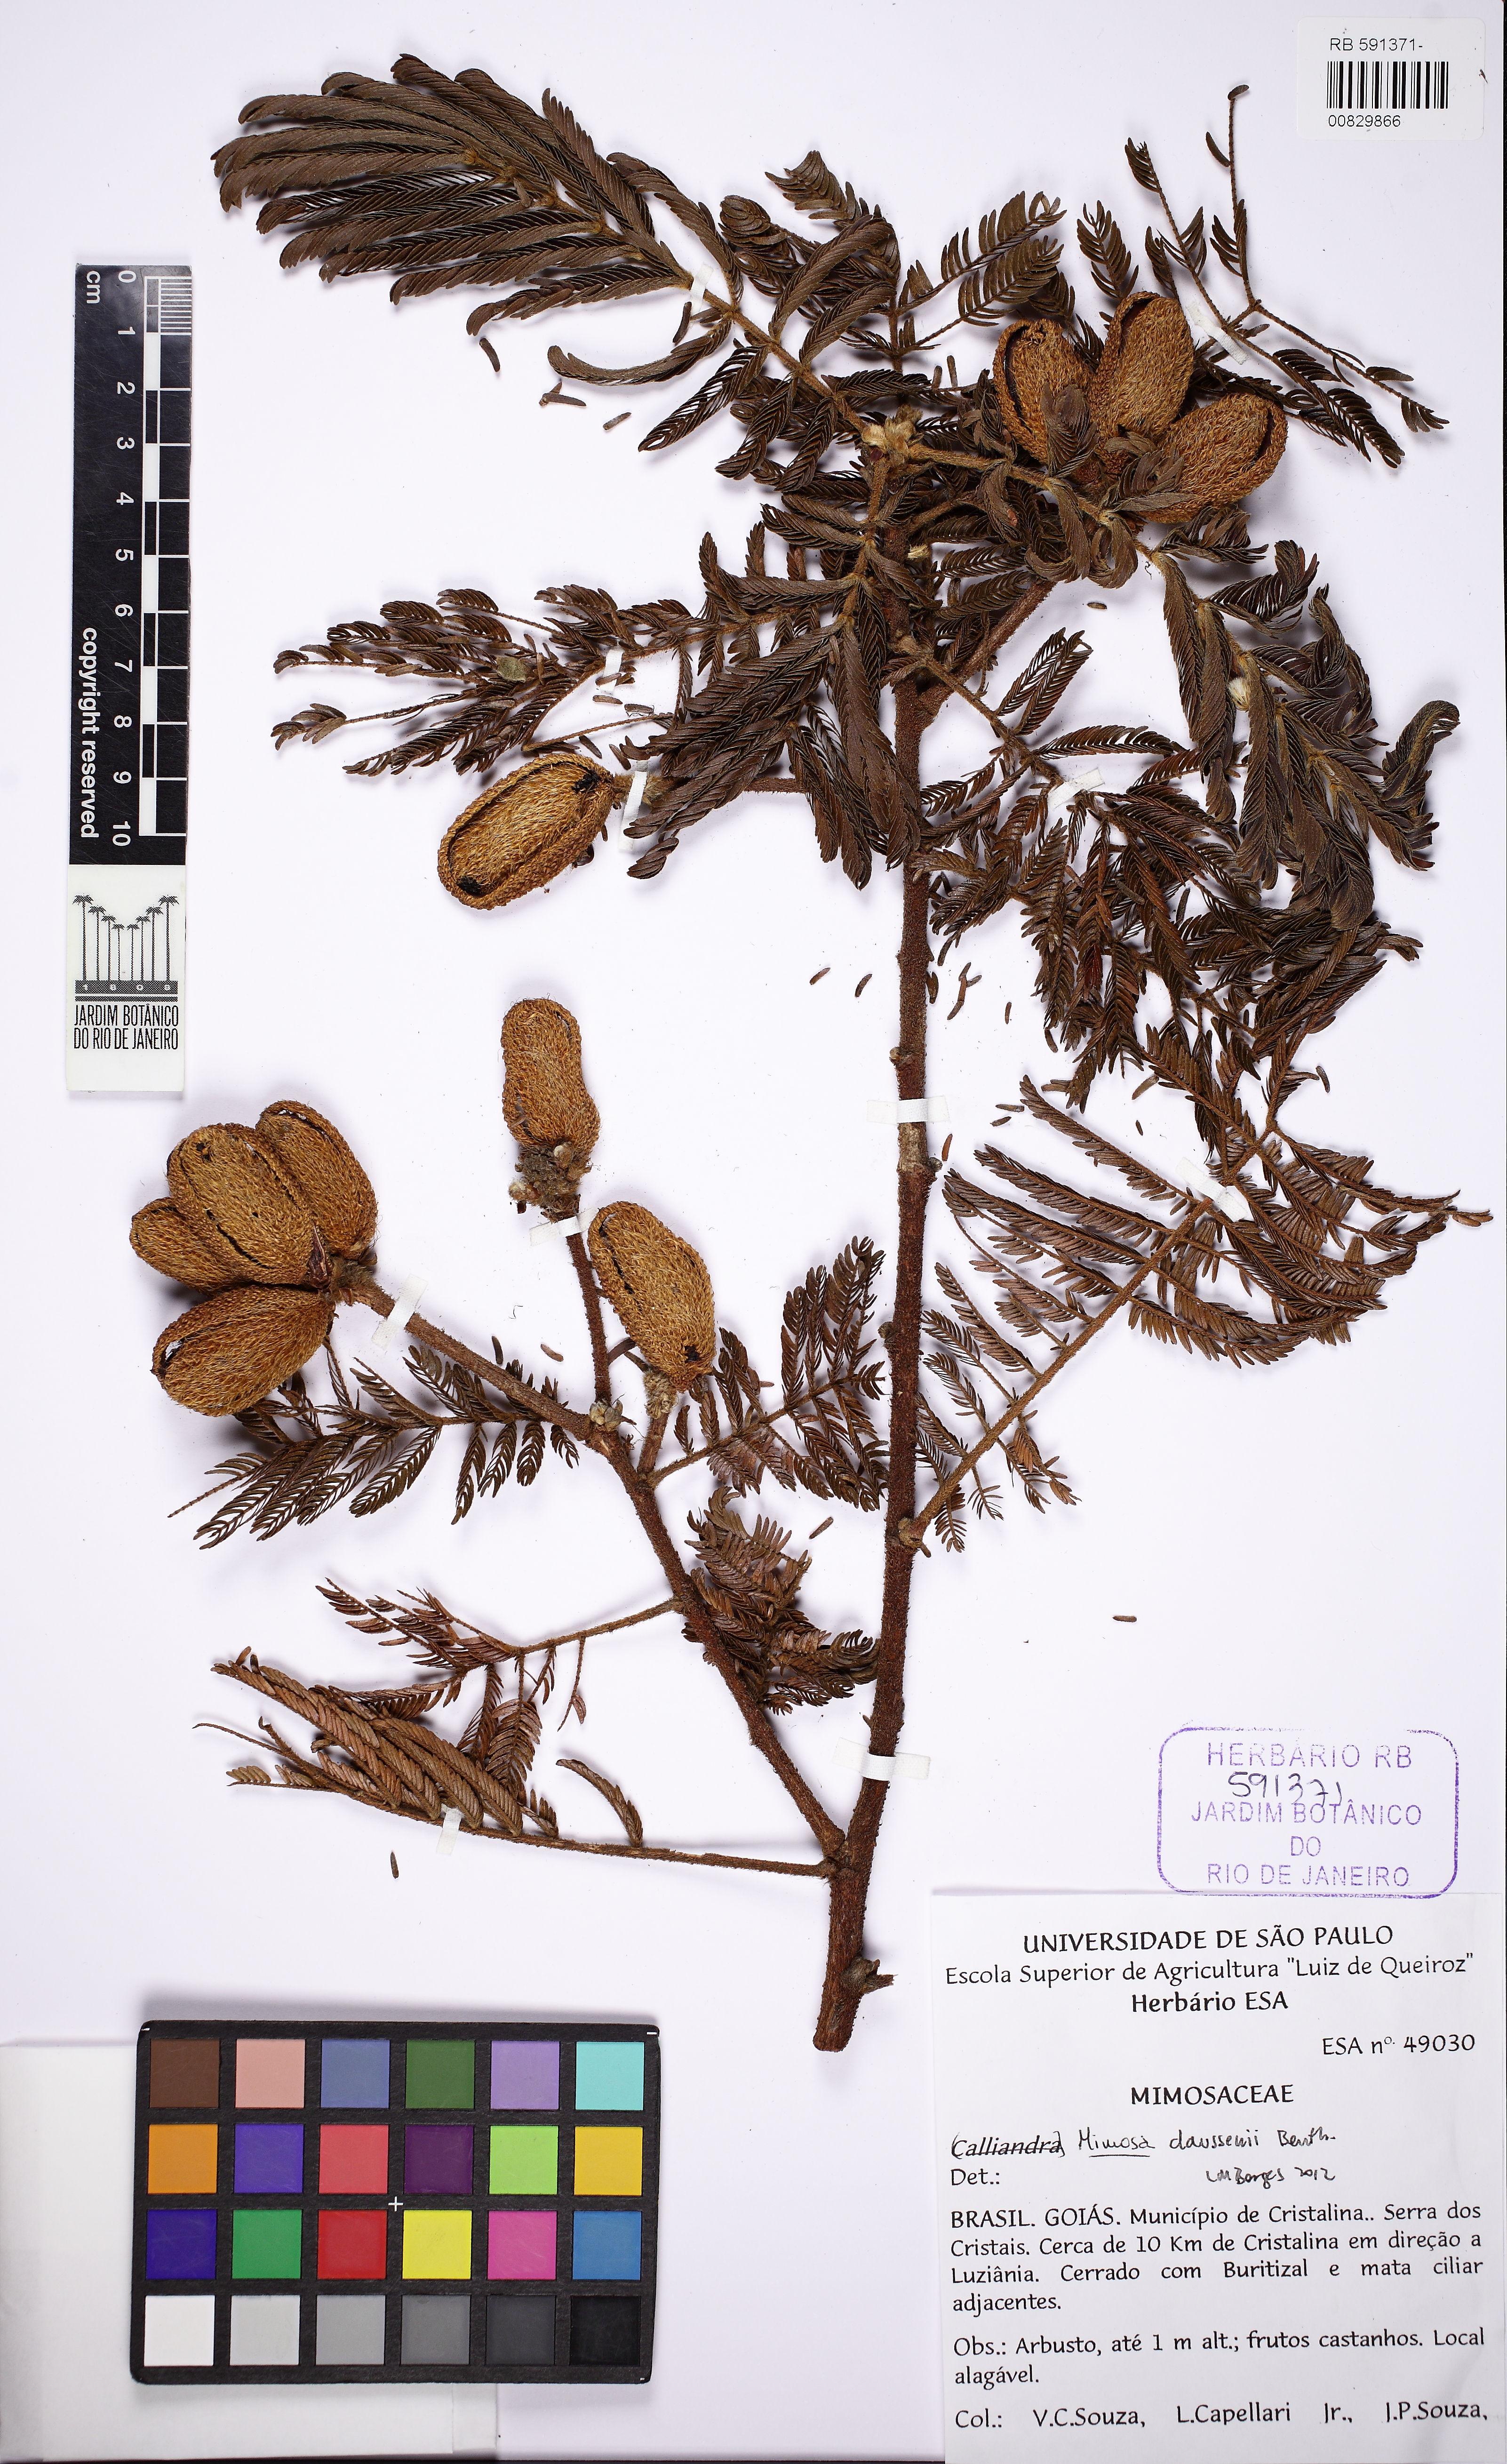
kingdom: Plantae
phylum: Tracheophyta
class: Magnoliopsida
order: Fabales
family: Fabaceae
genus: Mimosa
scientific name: Mimosa claussenii
